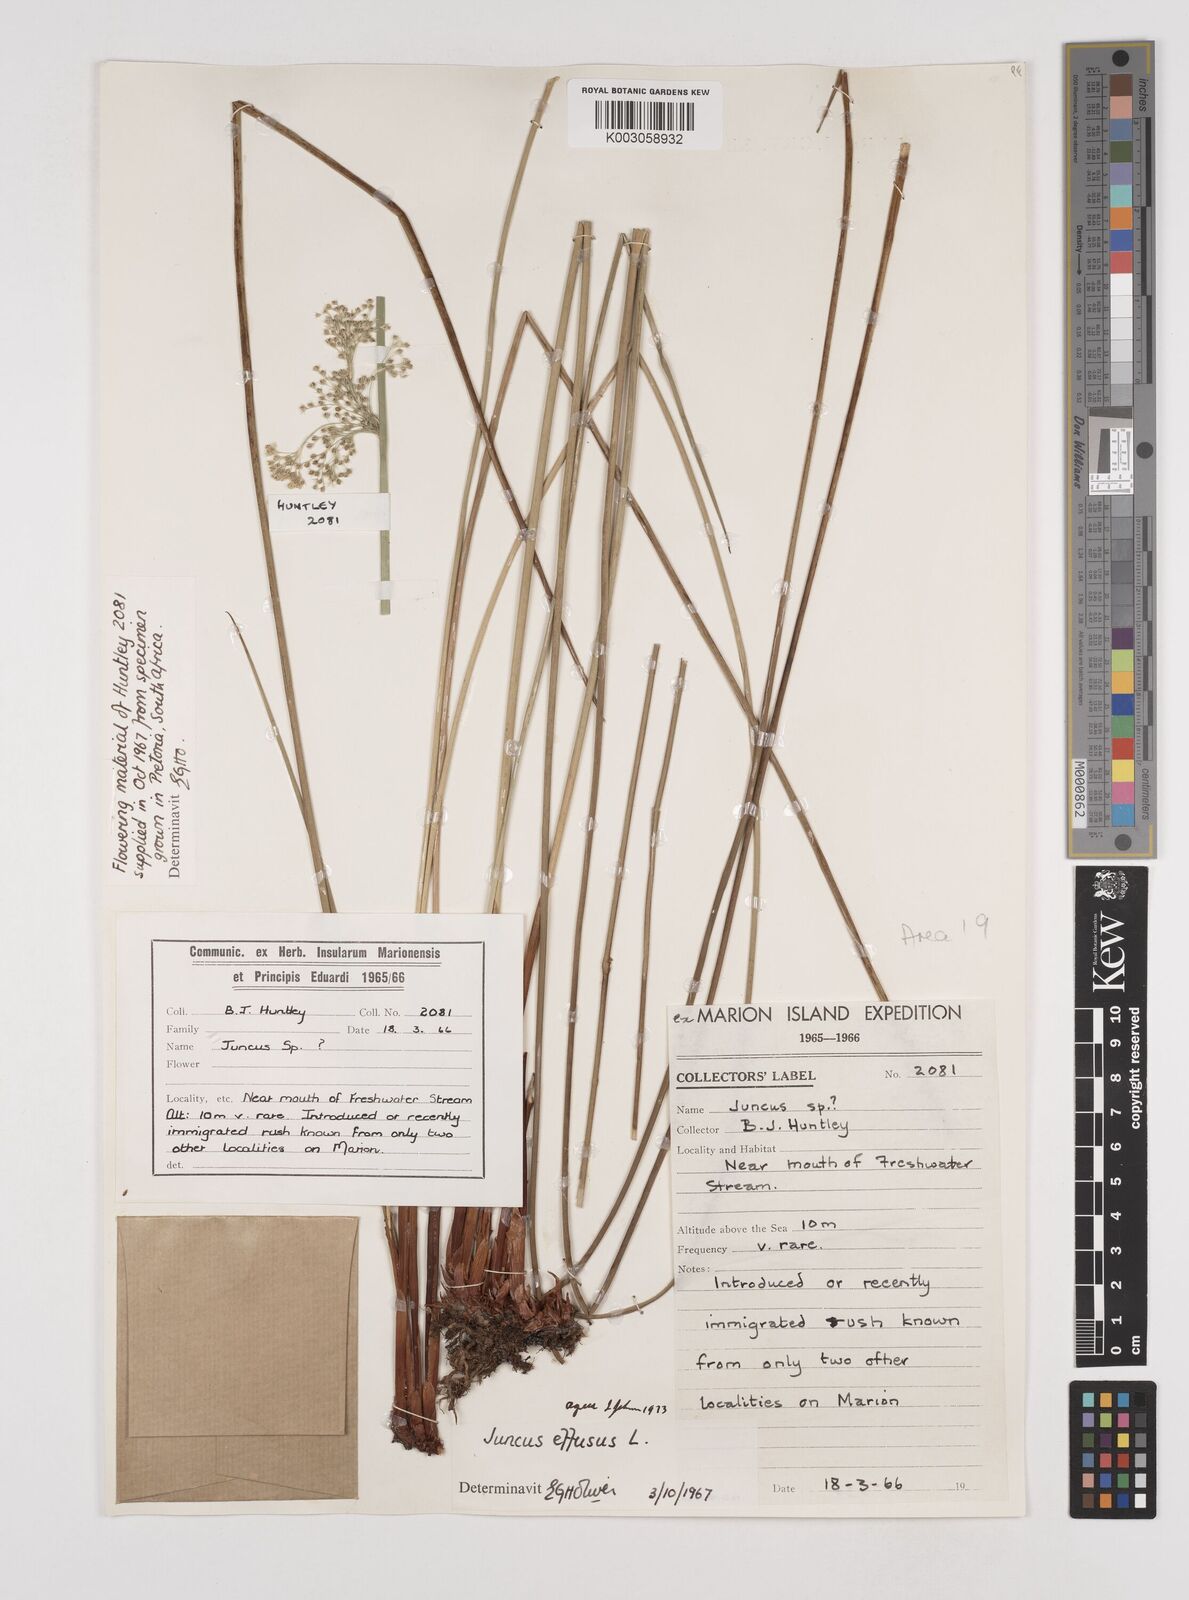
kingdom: Plantae
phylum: Tracheophyta
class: Liliopsida
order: Poales
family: Juncaceae
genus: Juncus
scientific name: Juncus effusus
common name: Soft rush
